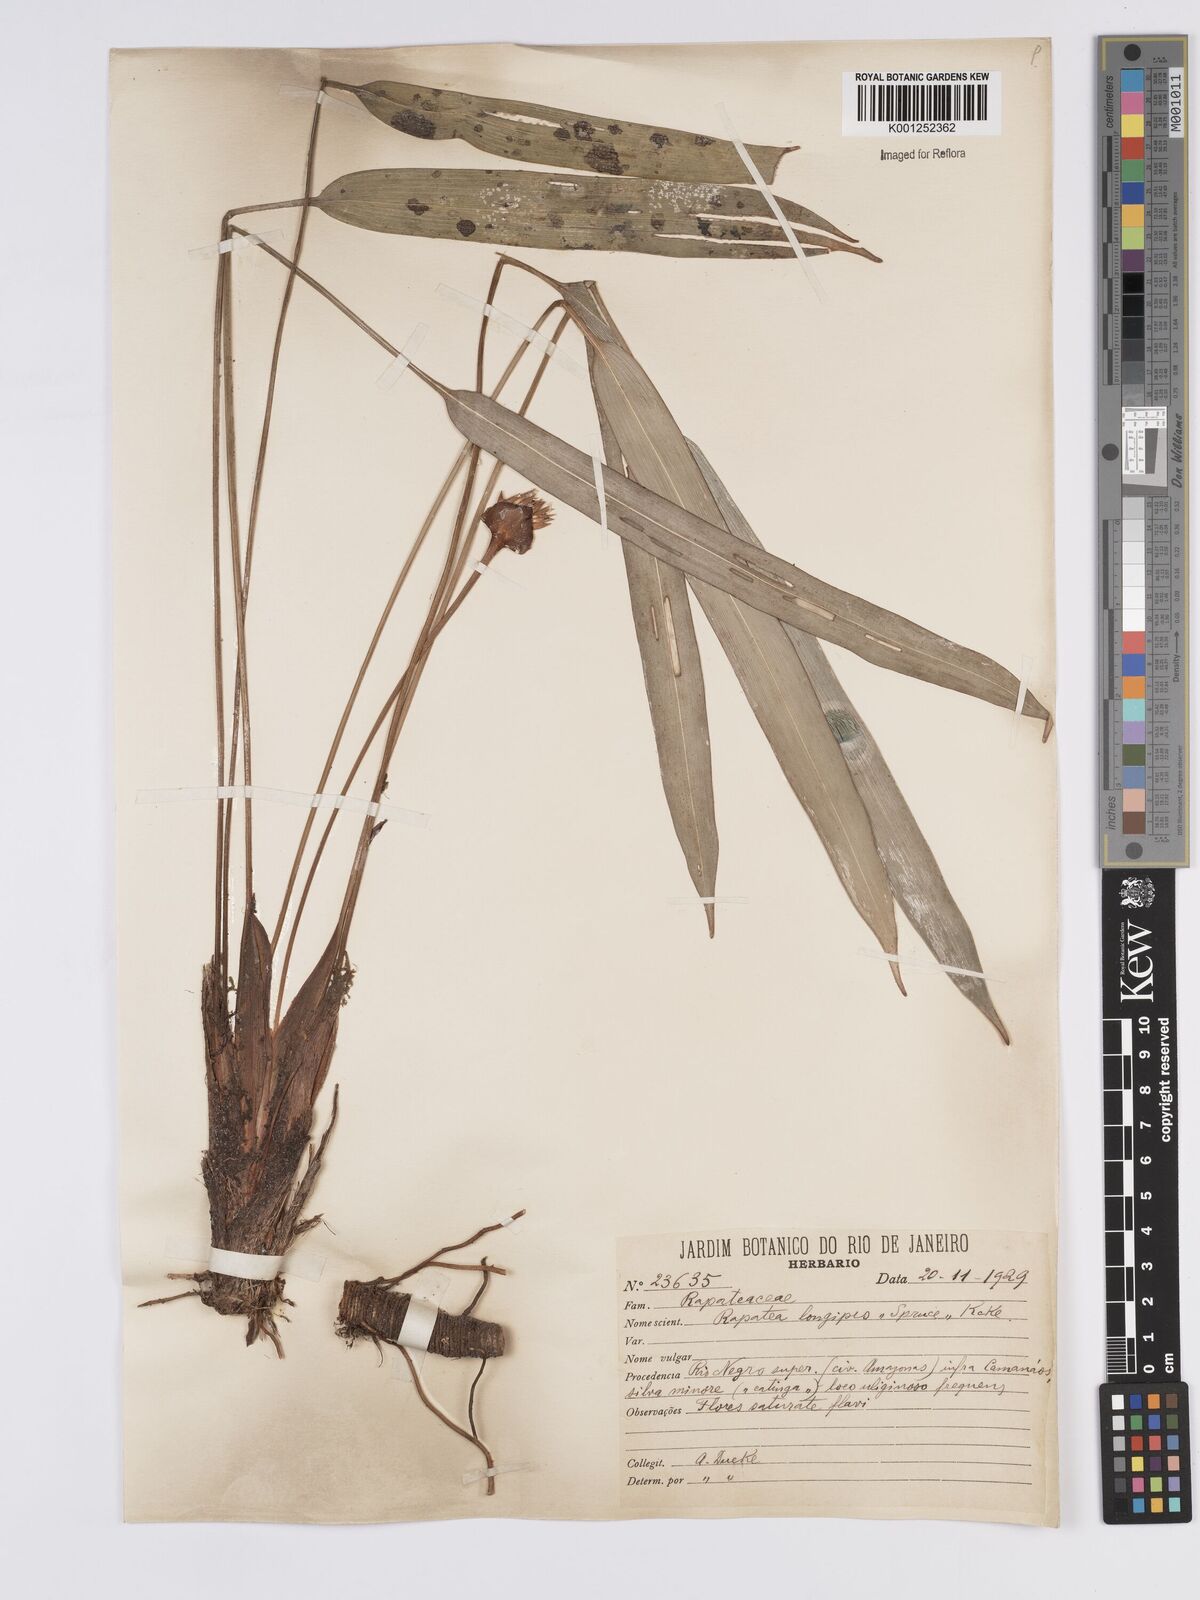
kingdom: Plantae
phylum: Tracheophyta
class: Liliopsida
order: Poales
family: Rapateaceae
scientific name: Rapateaceae
